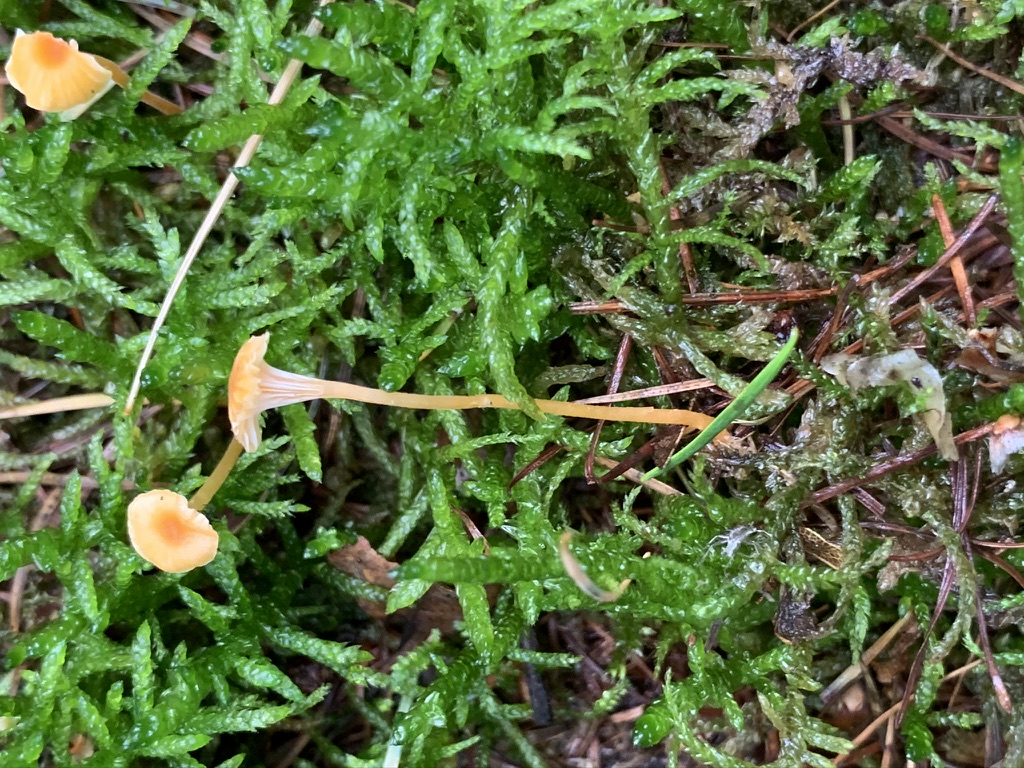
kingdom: Fungi
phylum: Basidiomycota
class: Agaricomycetes
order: Hymenochaetales
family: Rickenellaceae
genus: Rickenella
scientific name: Rickenella fibula
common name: orange mosnavlehat
